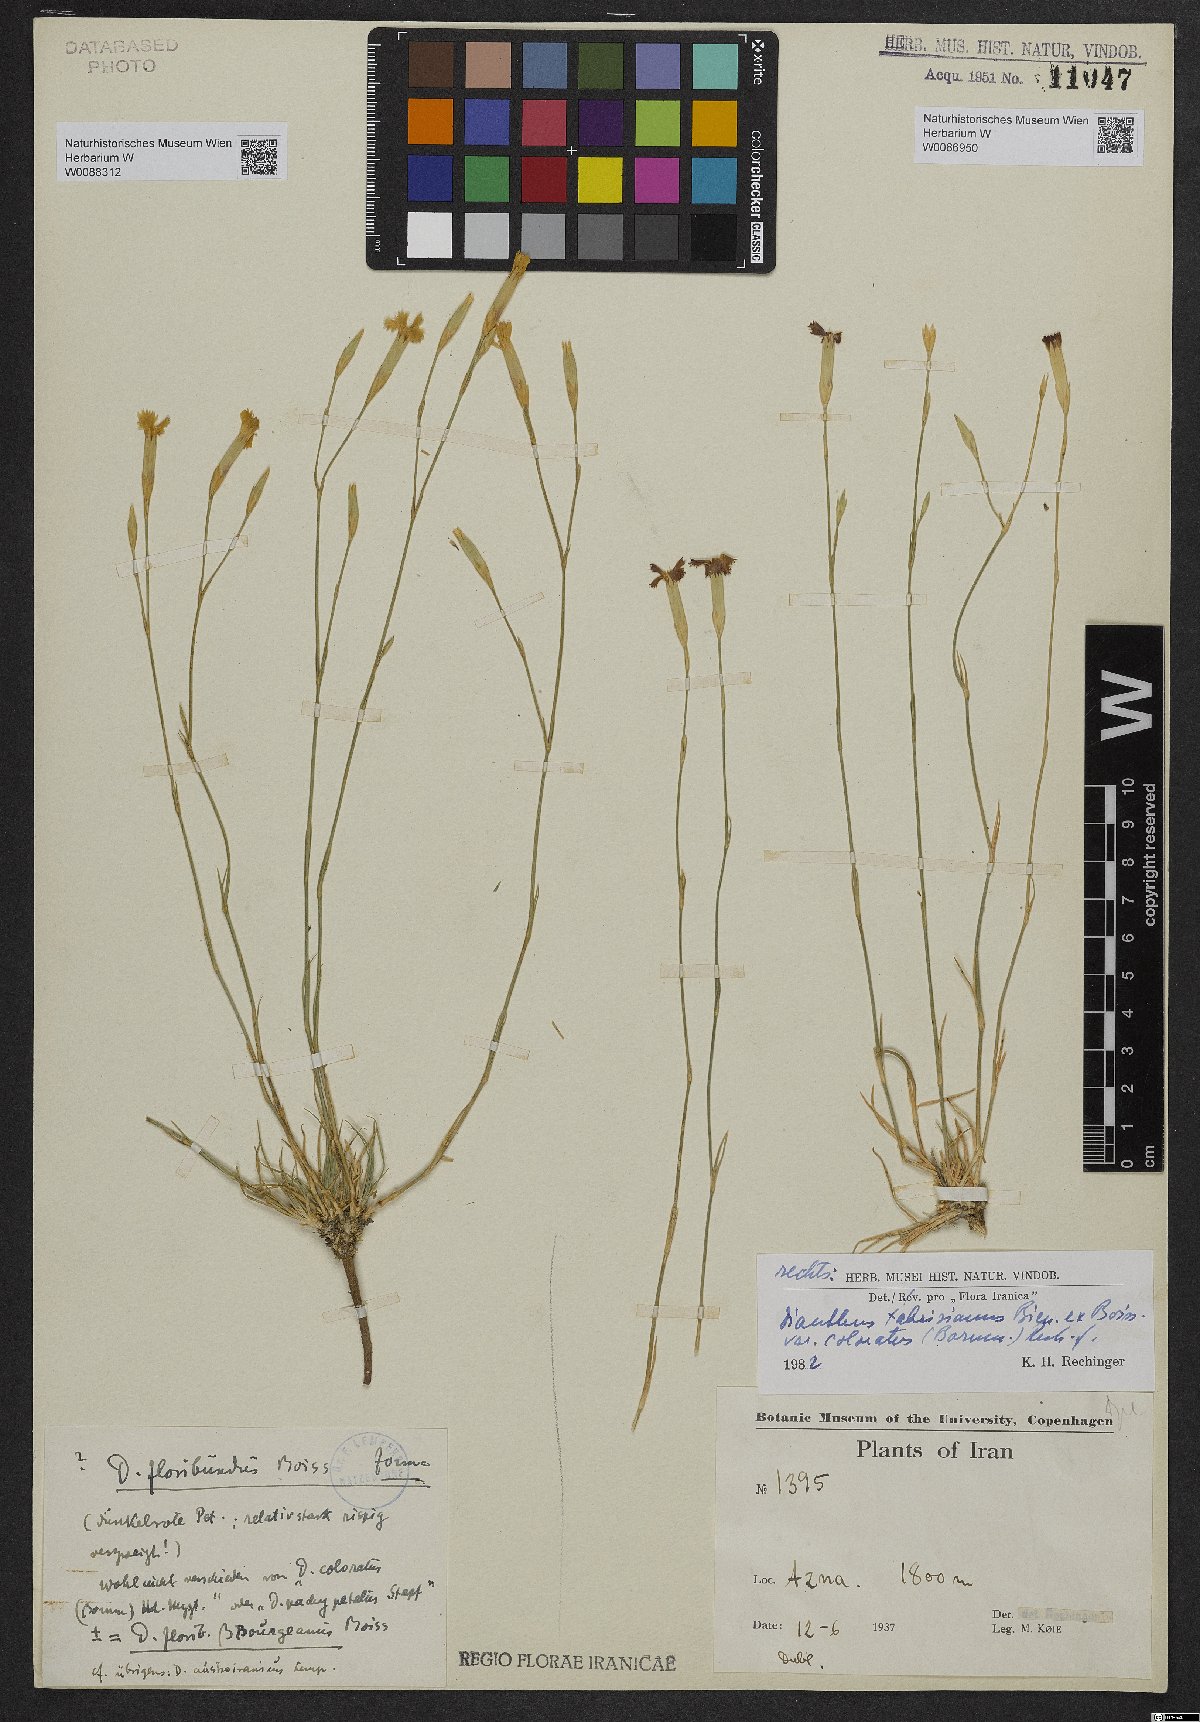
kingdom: Plantae
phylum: Tracheophyta
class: Magnoliopsida
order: Caryophyllales
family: Caryophyllaceae
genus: Dianthus
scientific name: Dianthus floribundus
